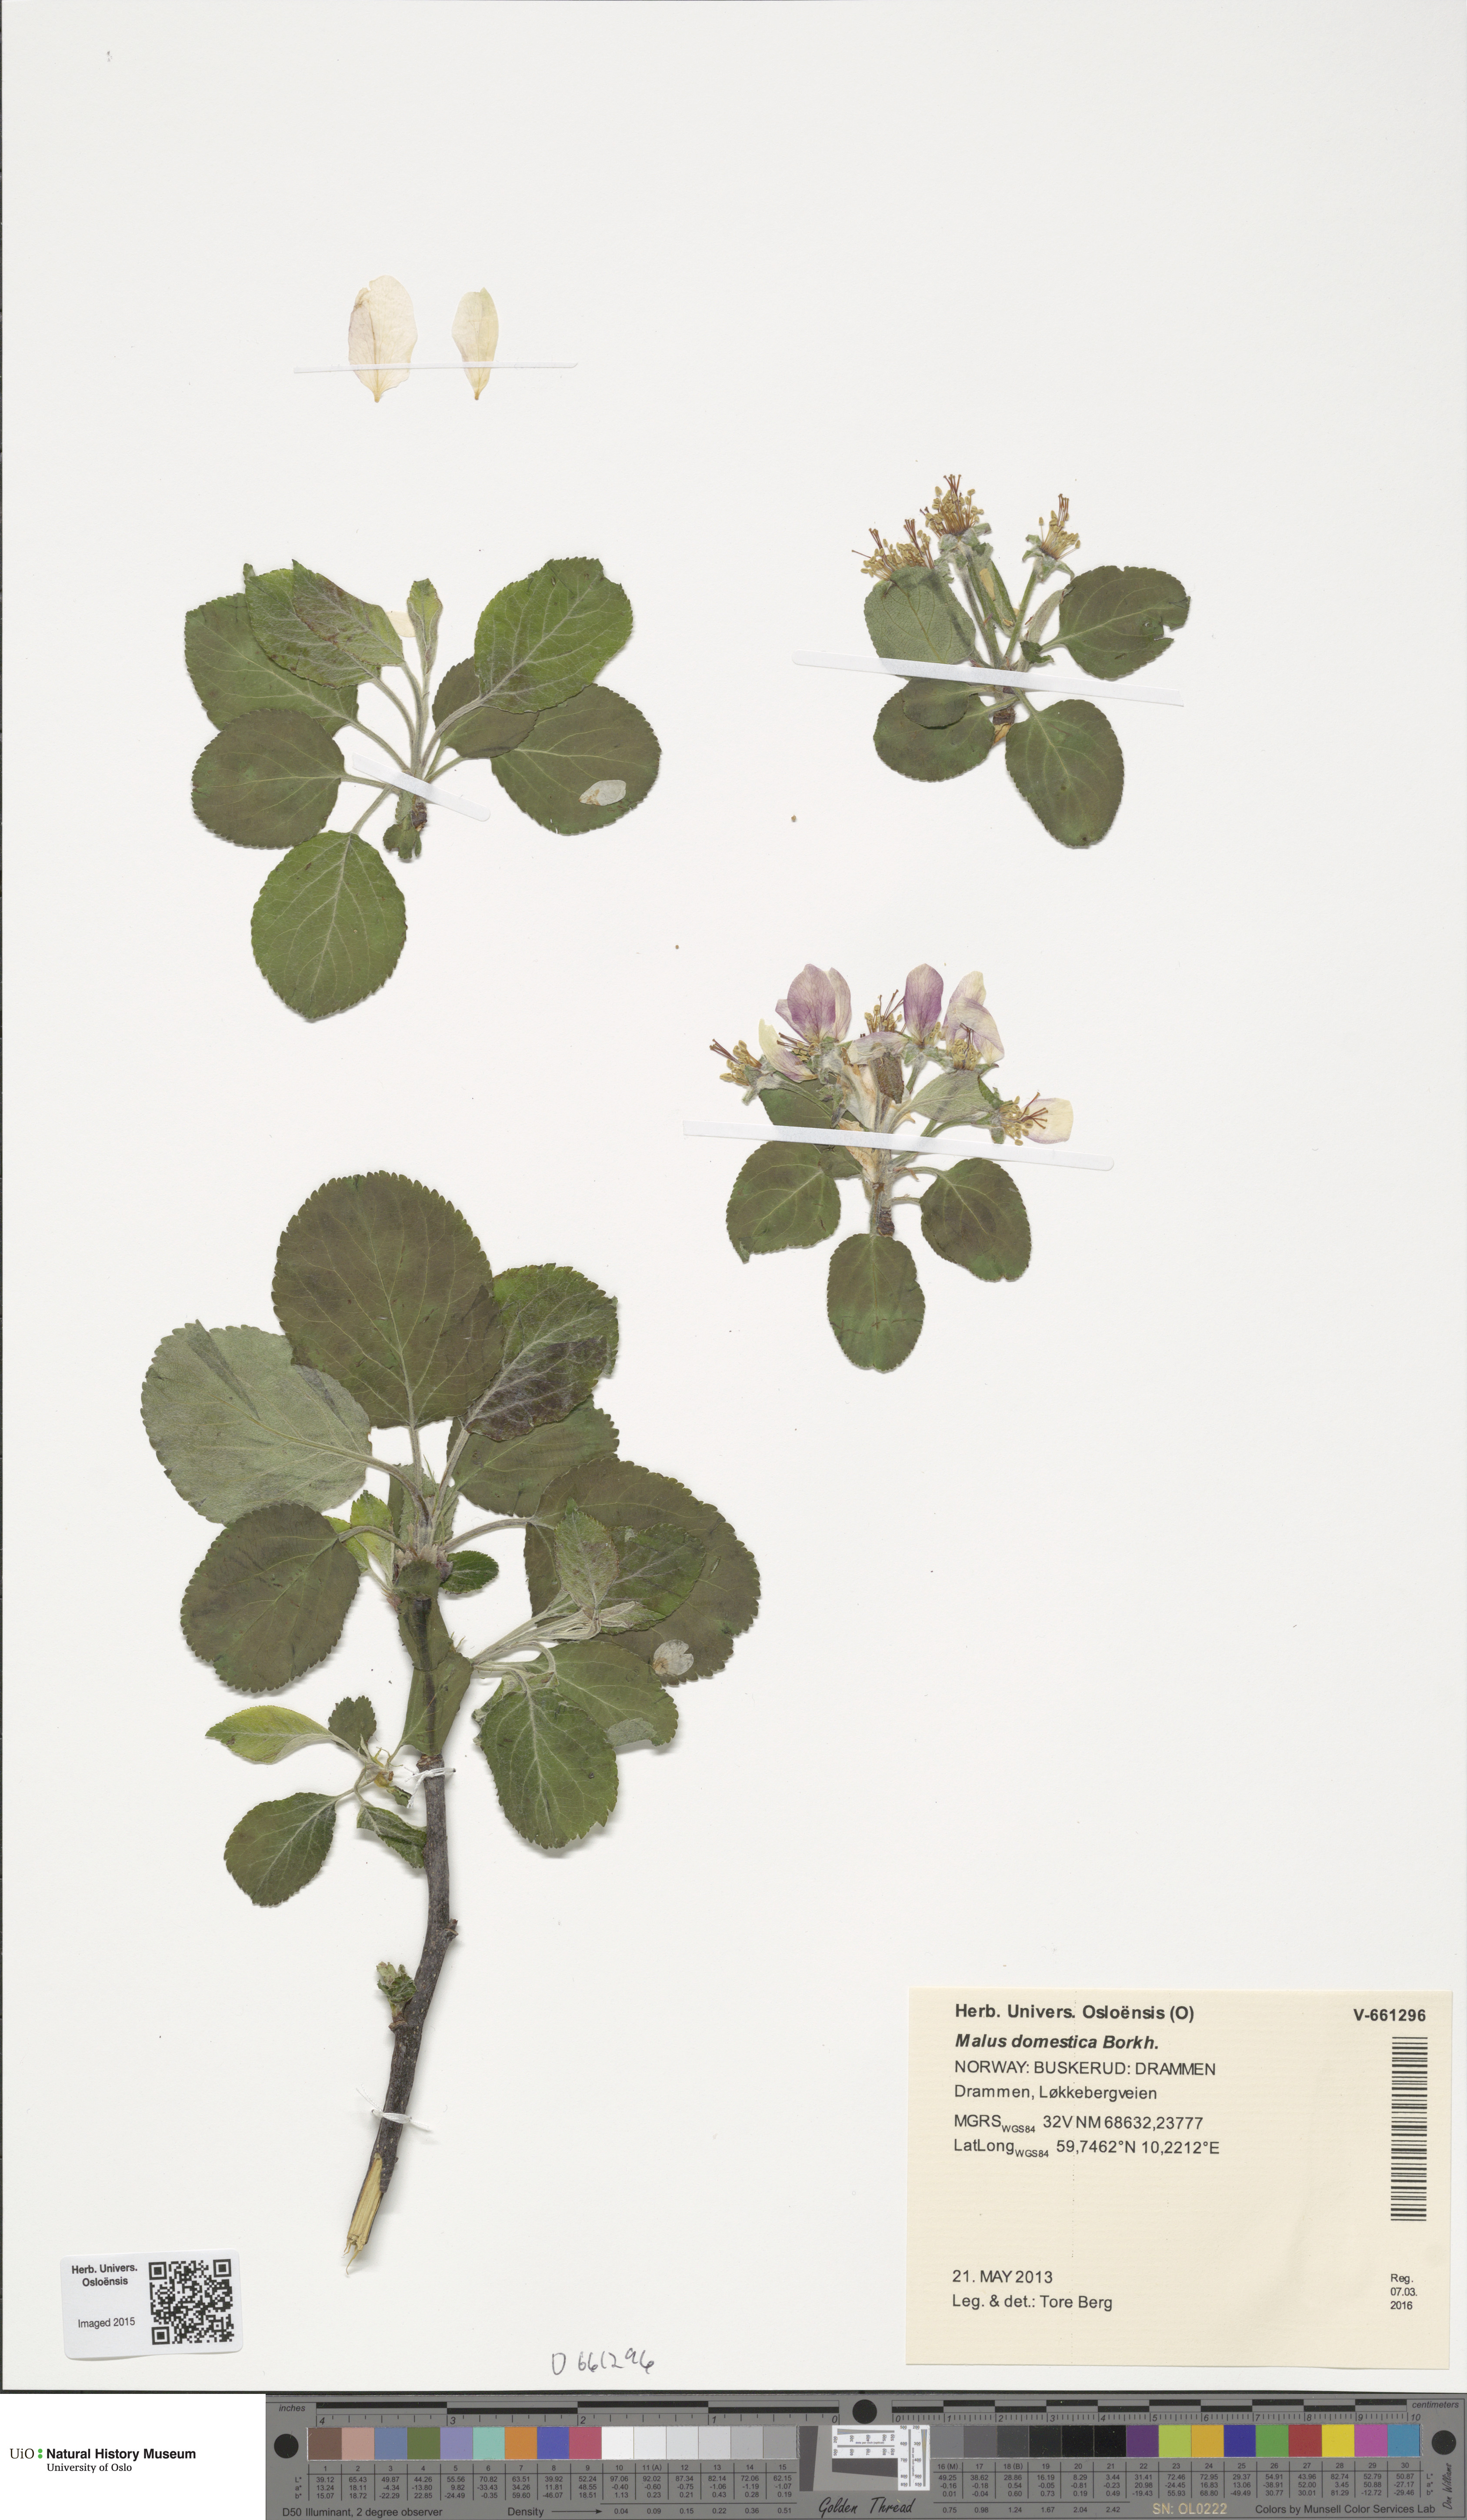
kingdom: Plantae
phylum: Tracheophyta
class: Magnoliopsida
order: Rosales
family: Rosaceae
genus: Malus
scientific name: Malus domestica
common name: Apple
